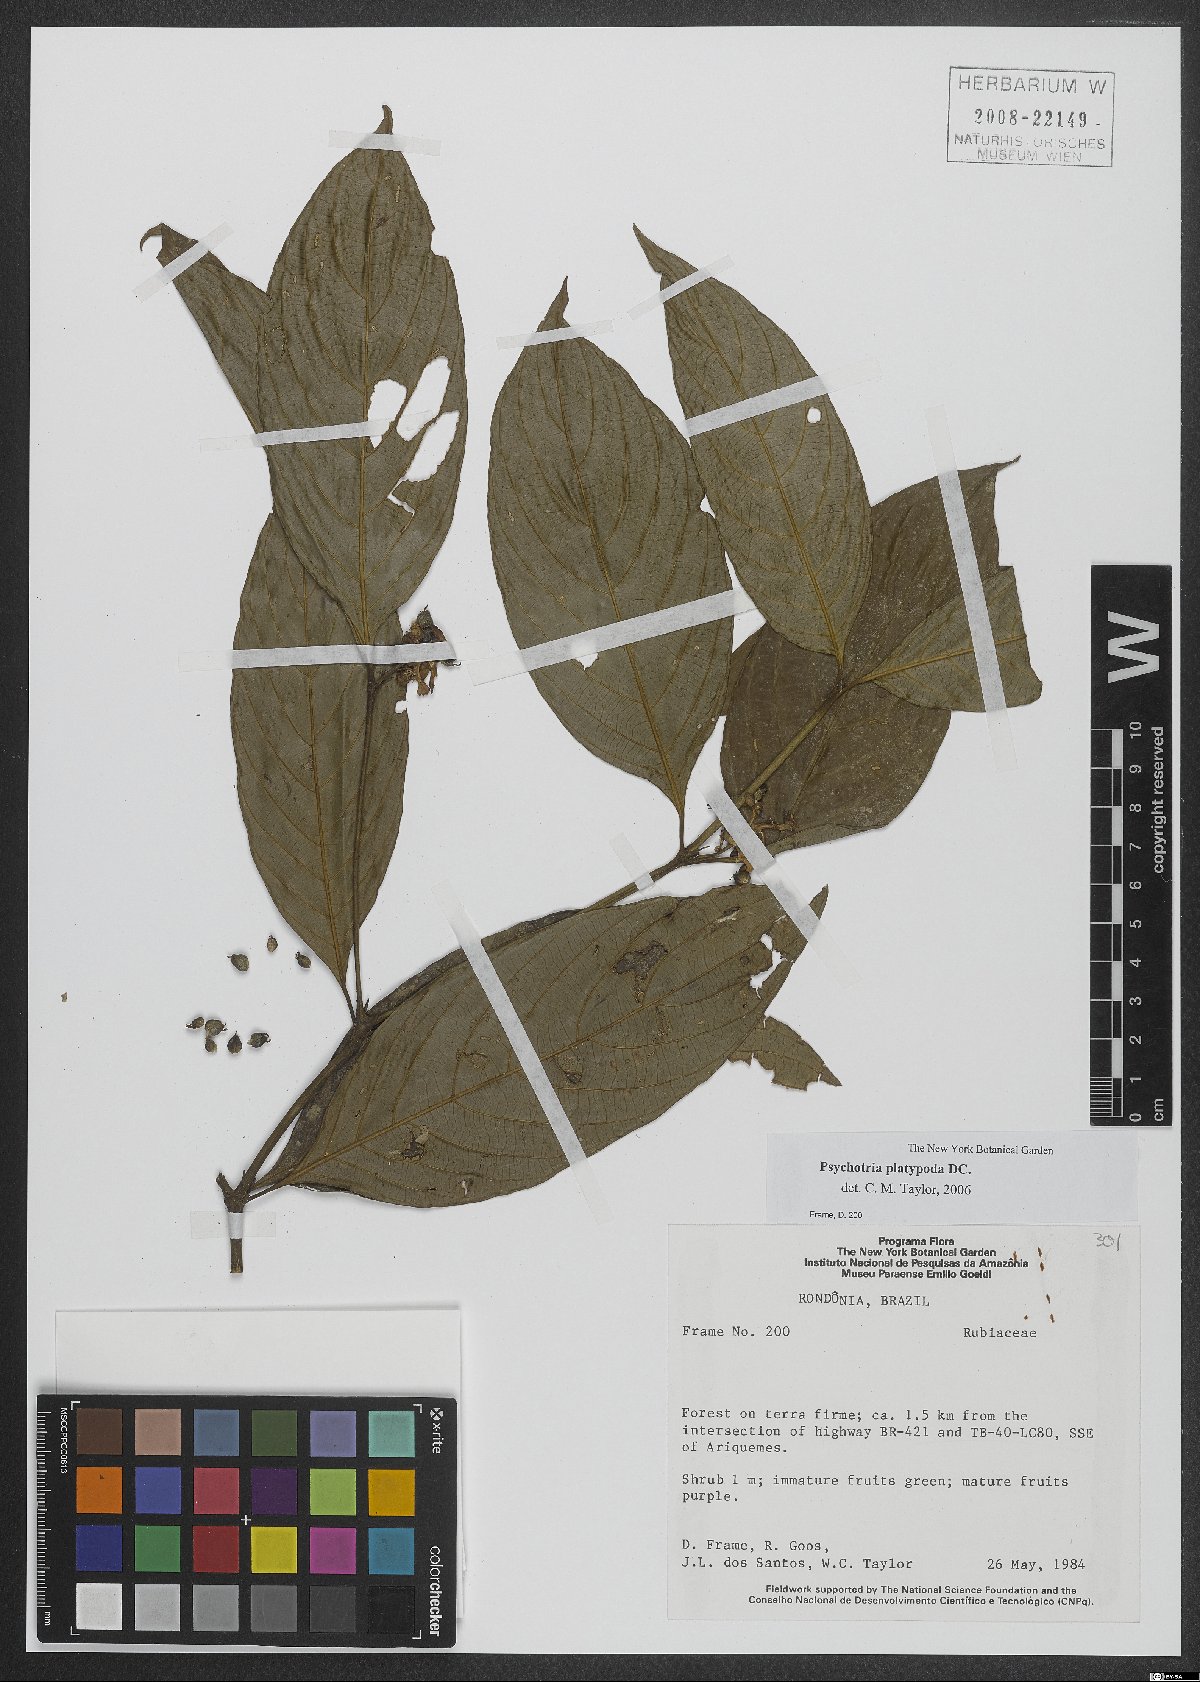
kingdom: Plantae
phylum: Tracheophyta
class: Magnoliopsida
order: Gentianales
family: Rubiaceae
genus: Palicourea
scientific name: Palicourea dichotoma
